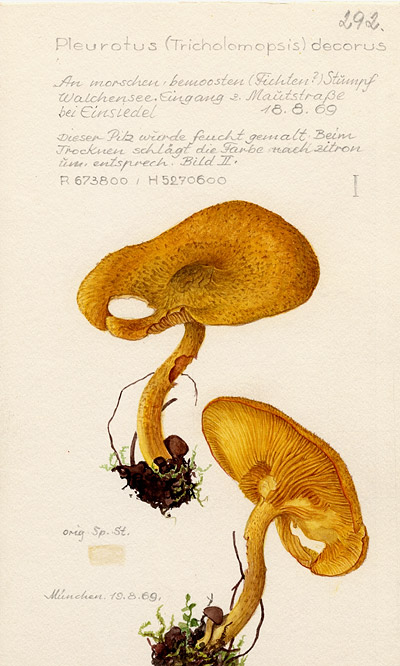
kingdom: Fungi
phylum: Basidiomycota
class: Agaricomycetes
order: Agaricales
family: Tricholomataceae
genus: Tricholomopsis
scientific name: Tricholomopsis decora
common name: Prunes and custard
